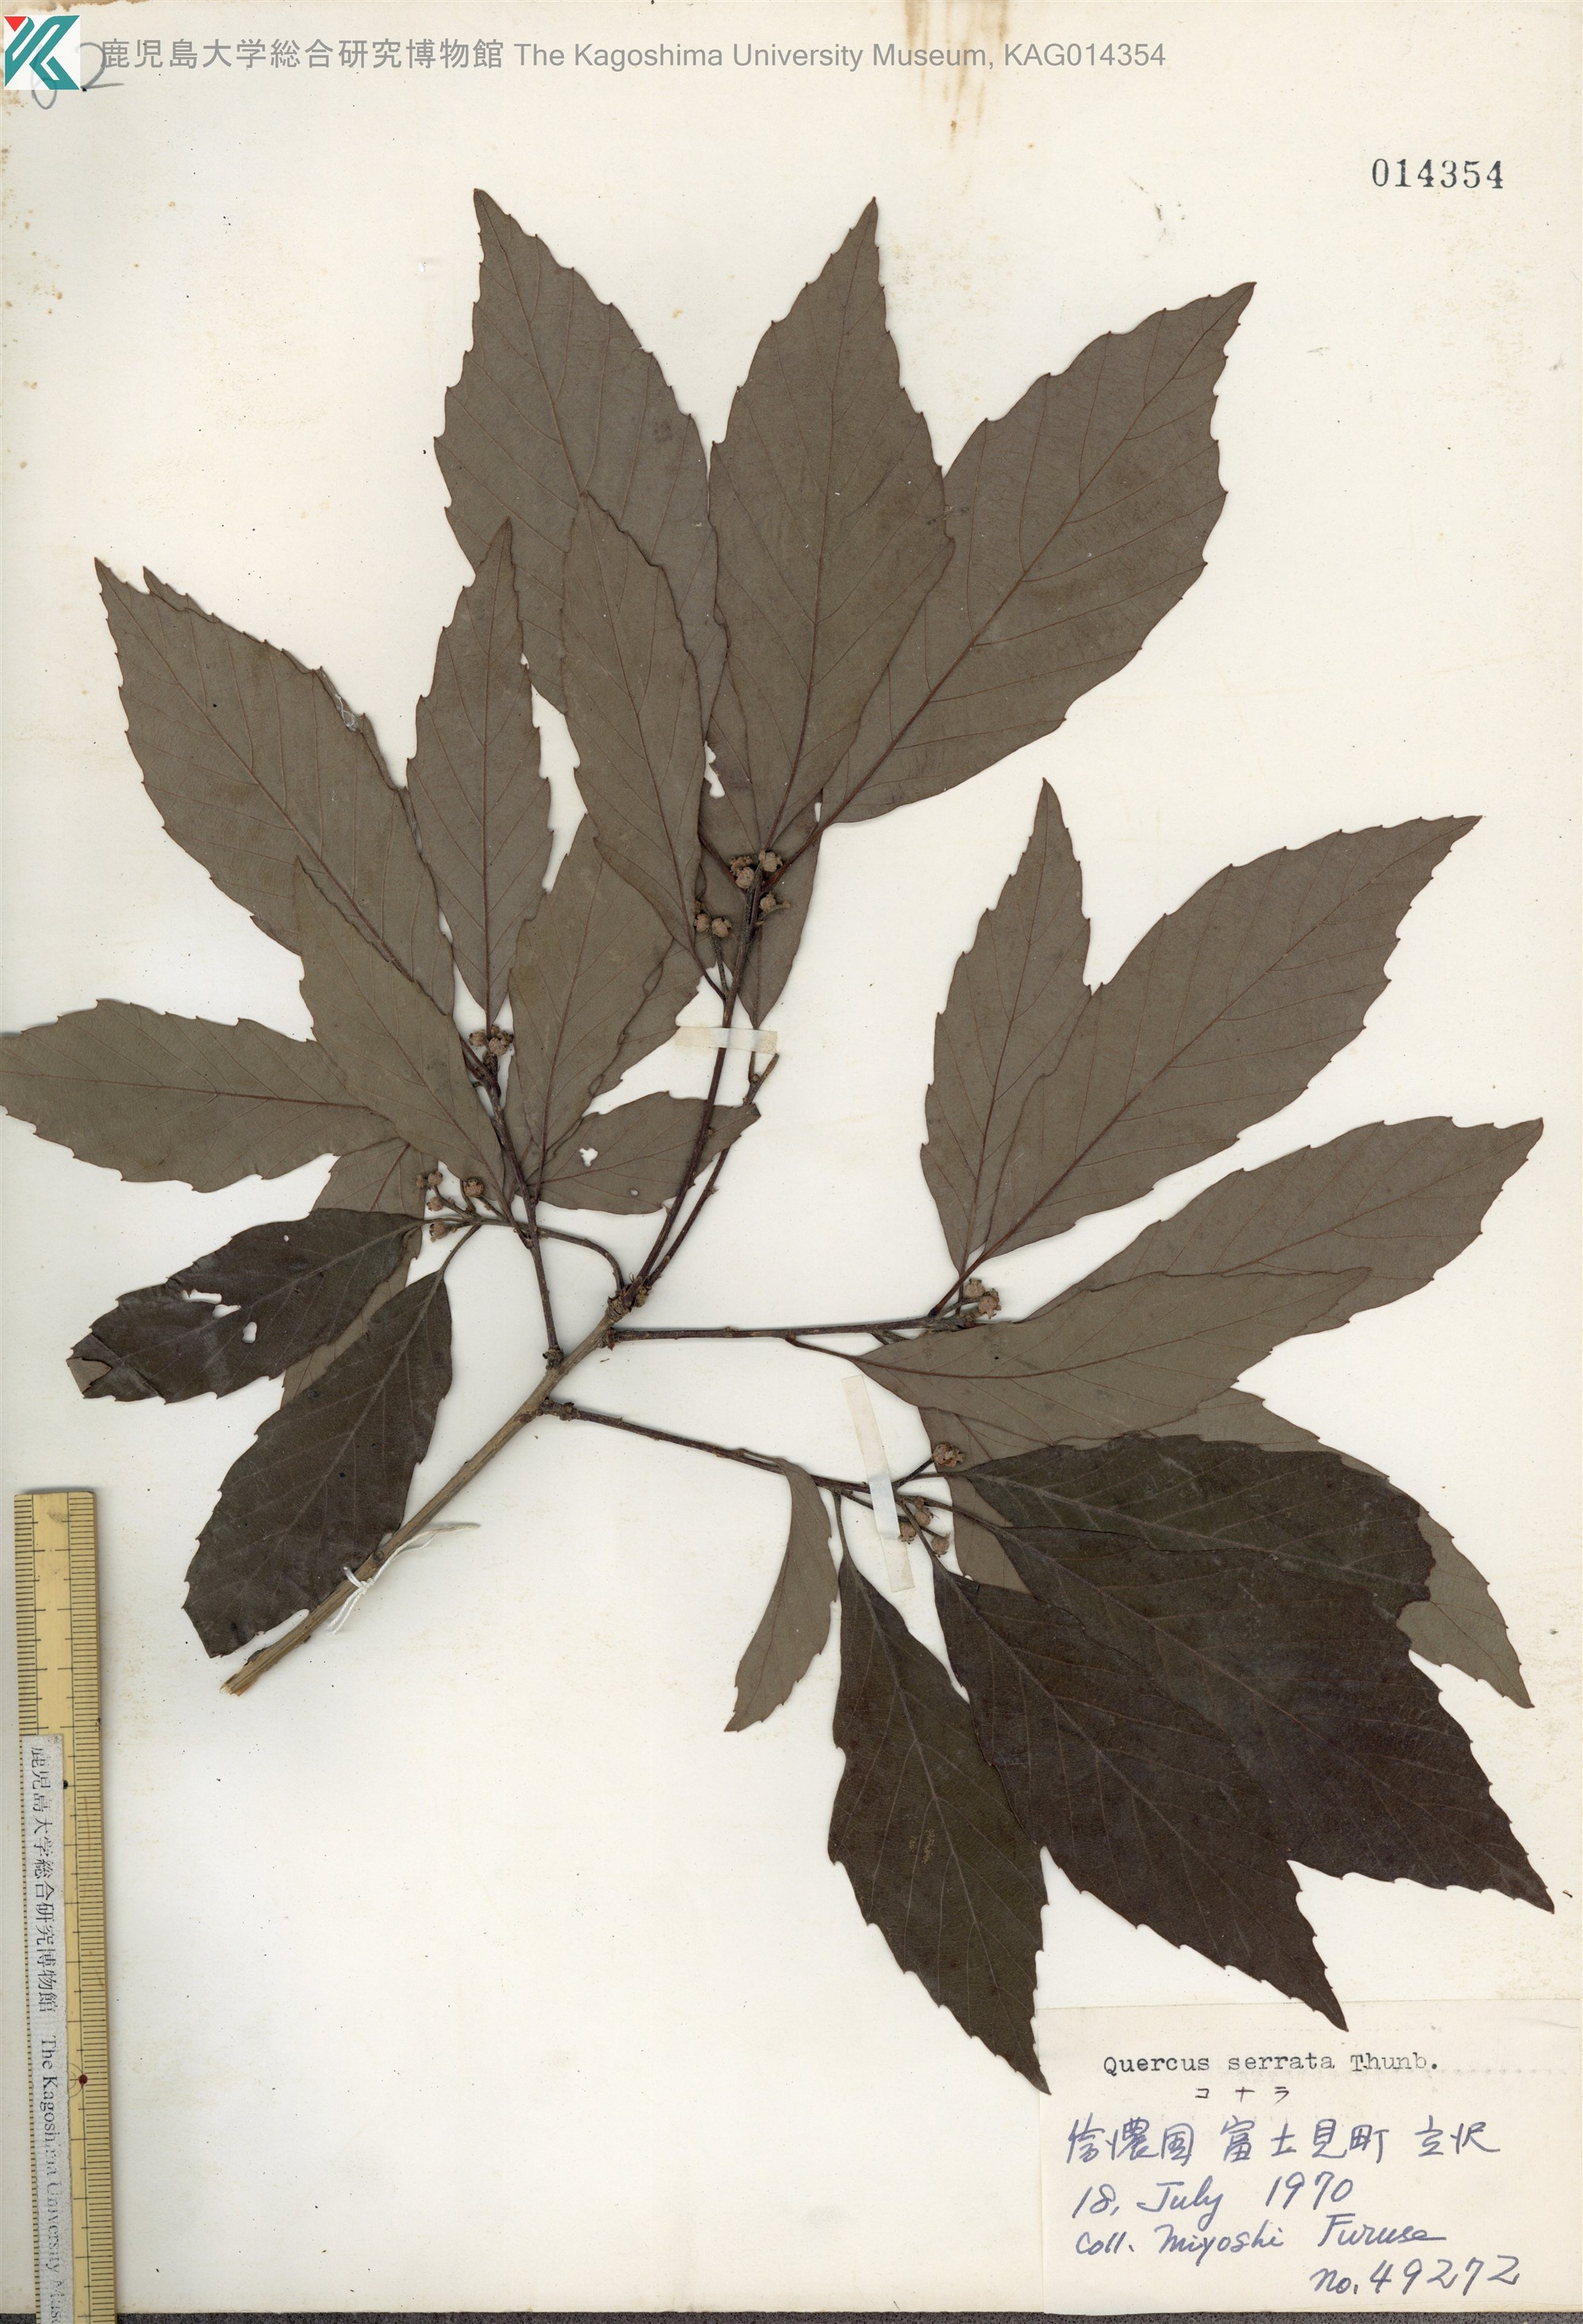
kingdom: Plantae
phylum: Tracheophyta
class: Magnoliopsida
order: Fagales
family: Fagaceae
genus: Quercus
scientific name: Quercus serrata
